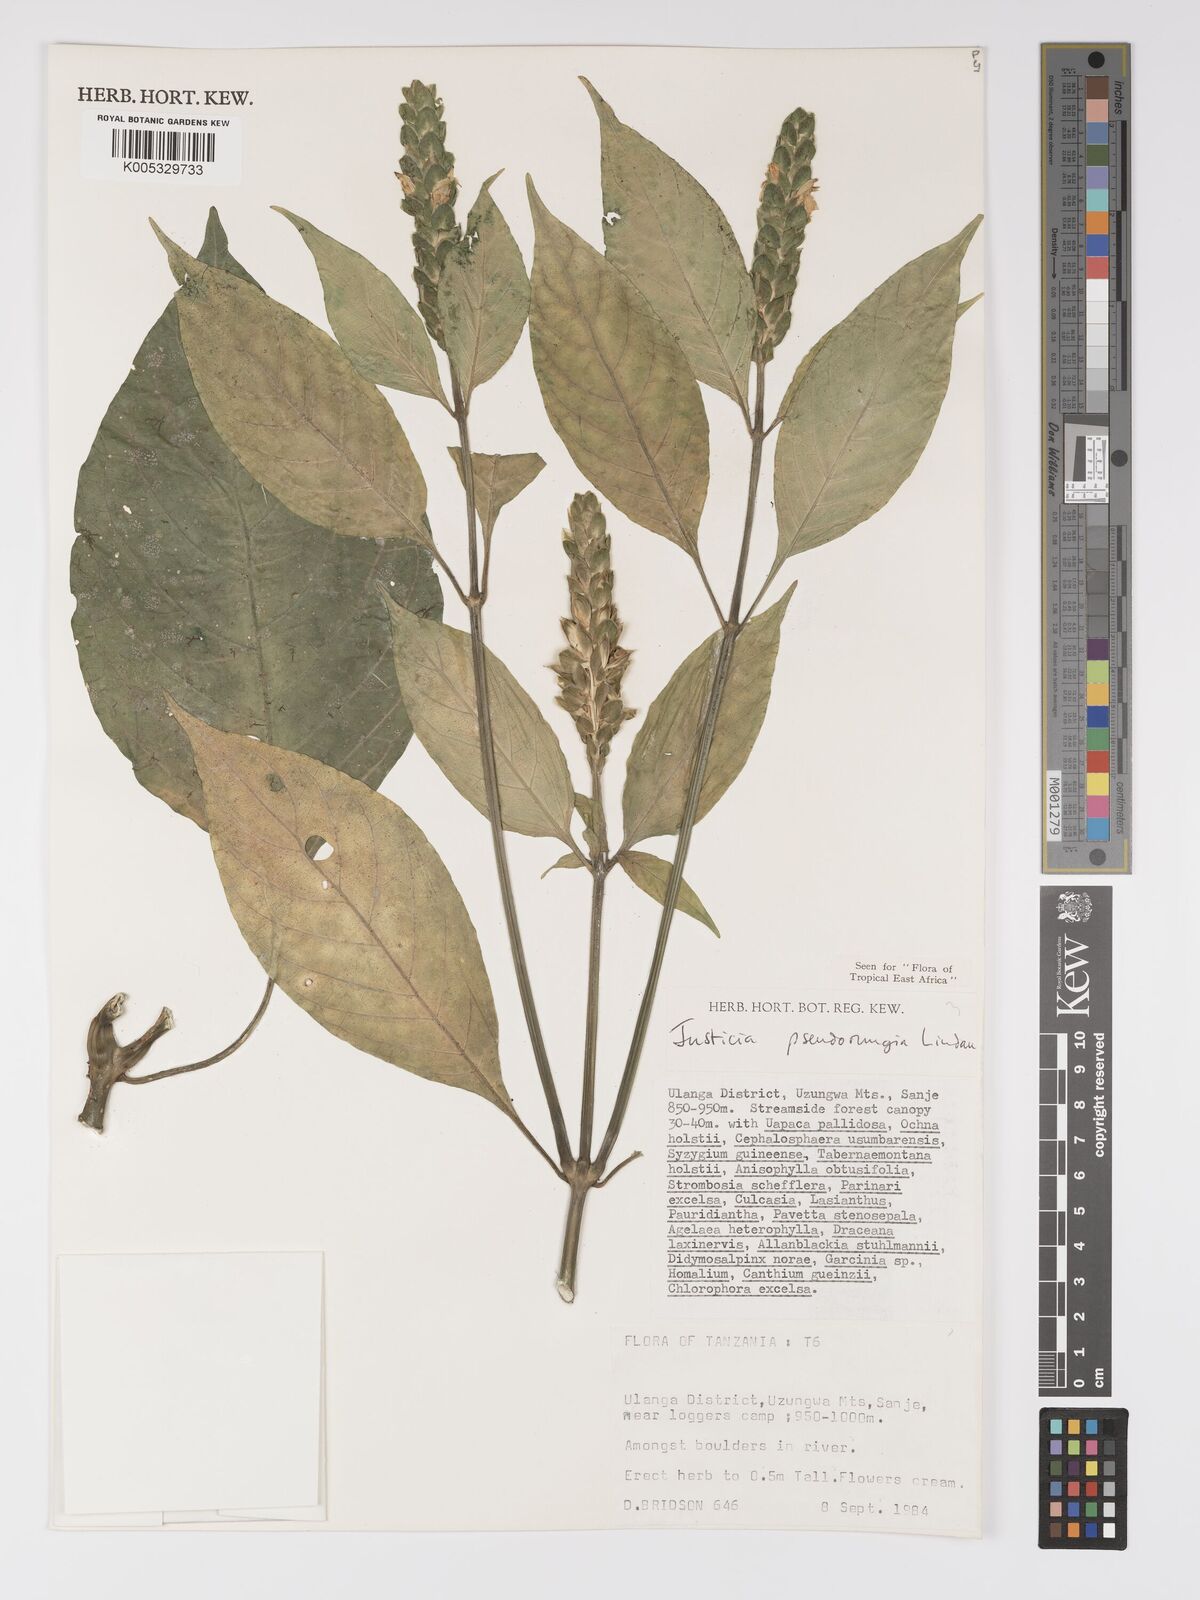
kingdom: Plantae
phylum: Tracheophyta
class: Magnoliopsida
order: Lamiales
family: Acanthaceae
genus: Justicia
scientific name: Justicia pseudorungia
